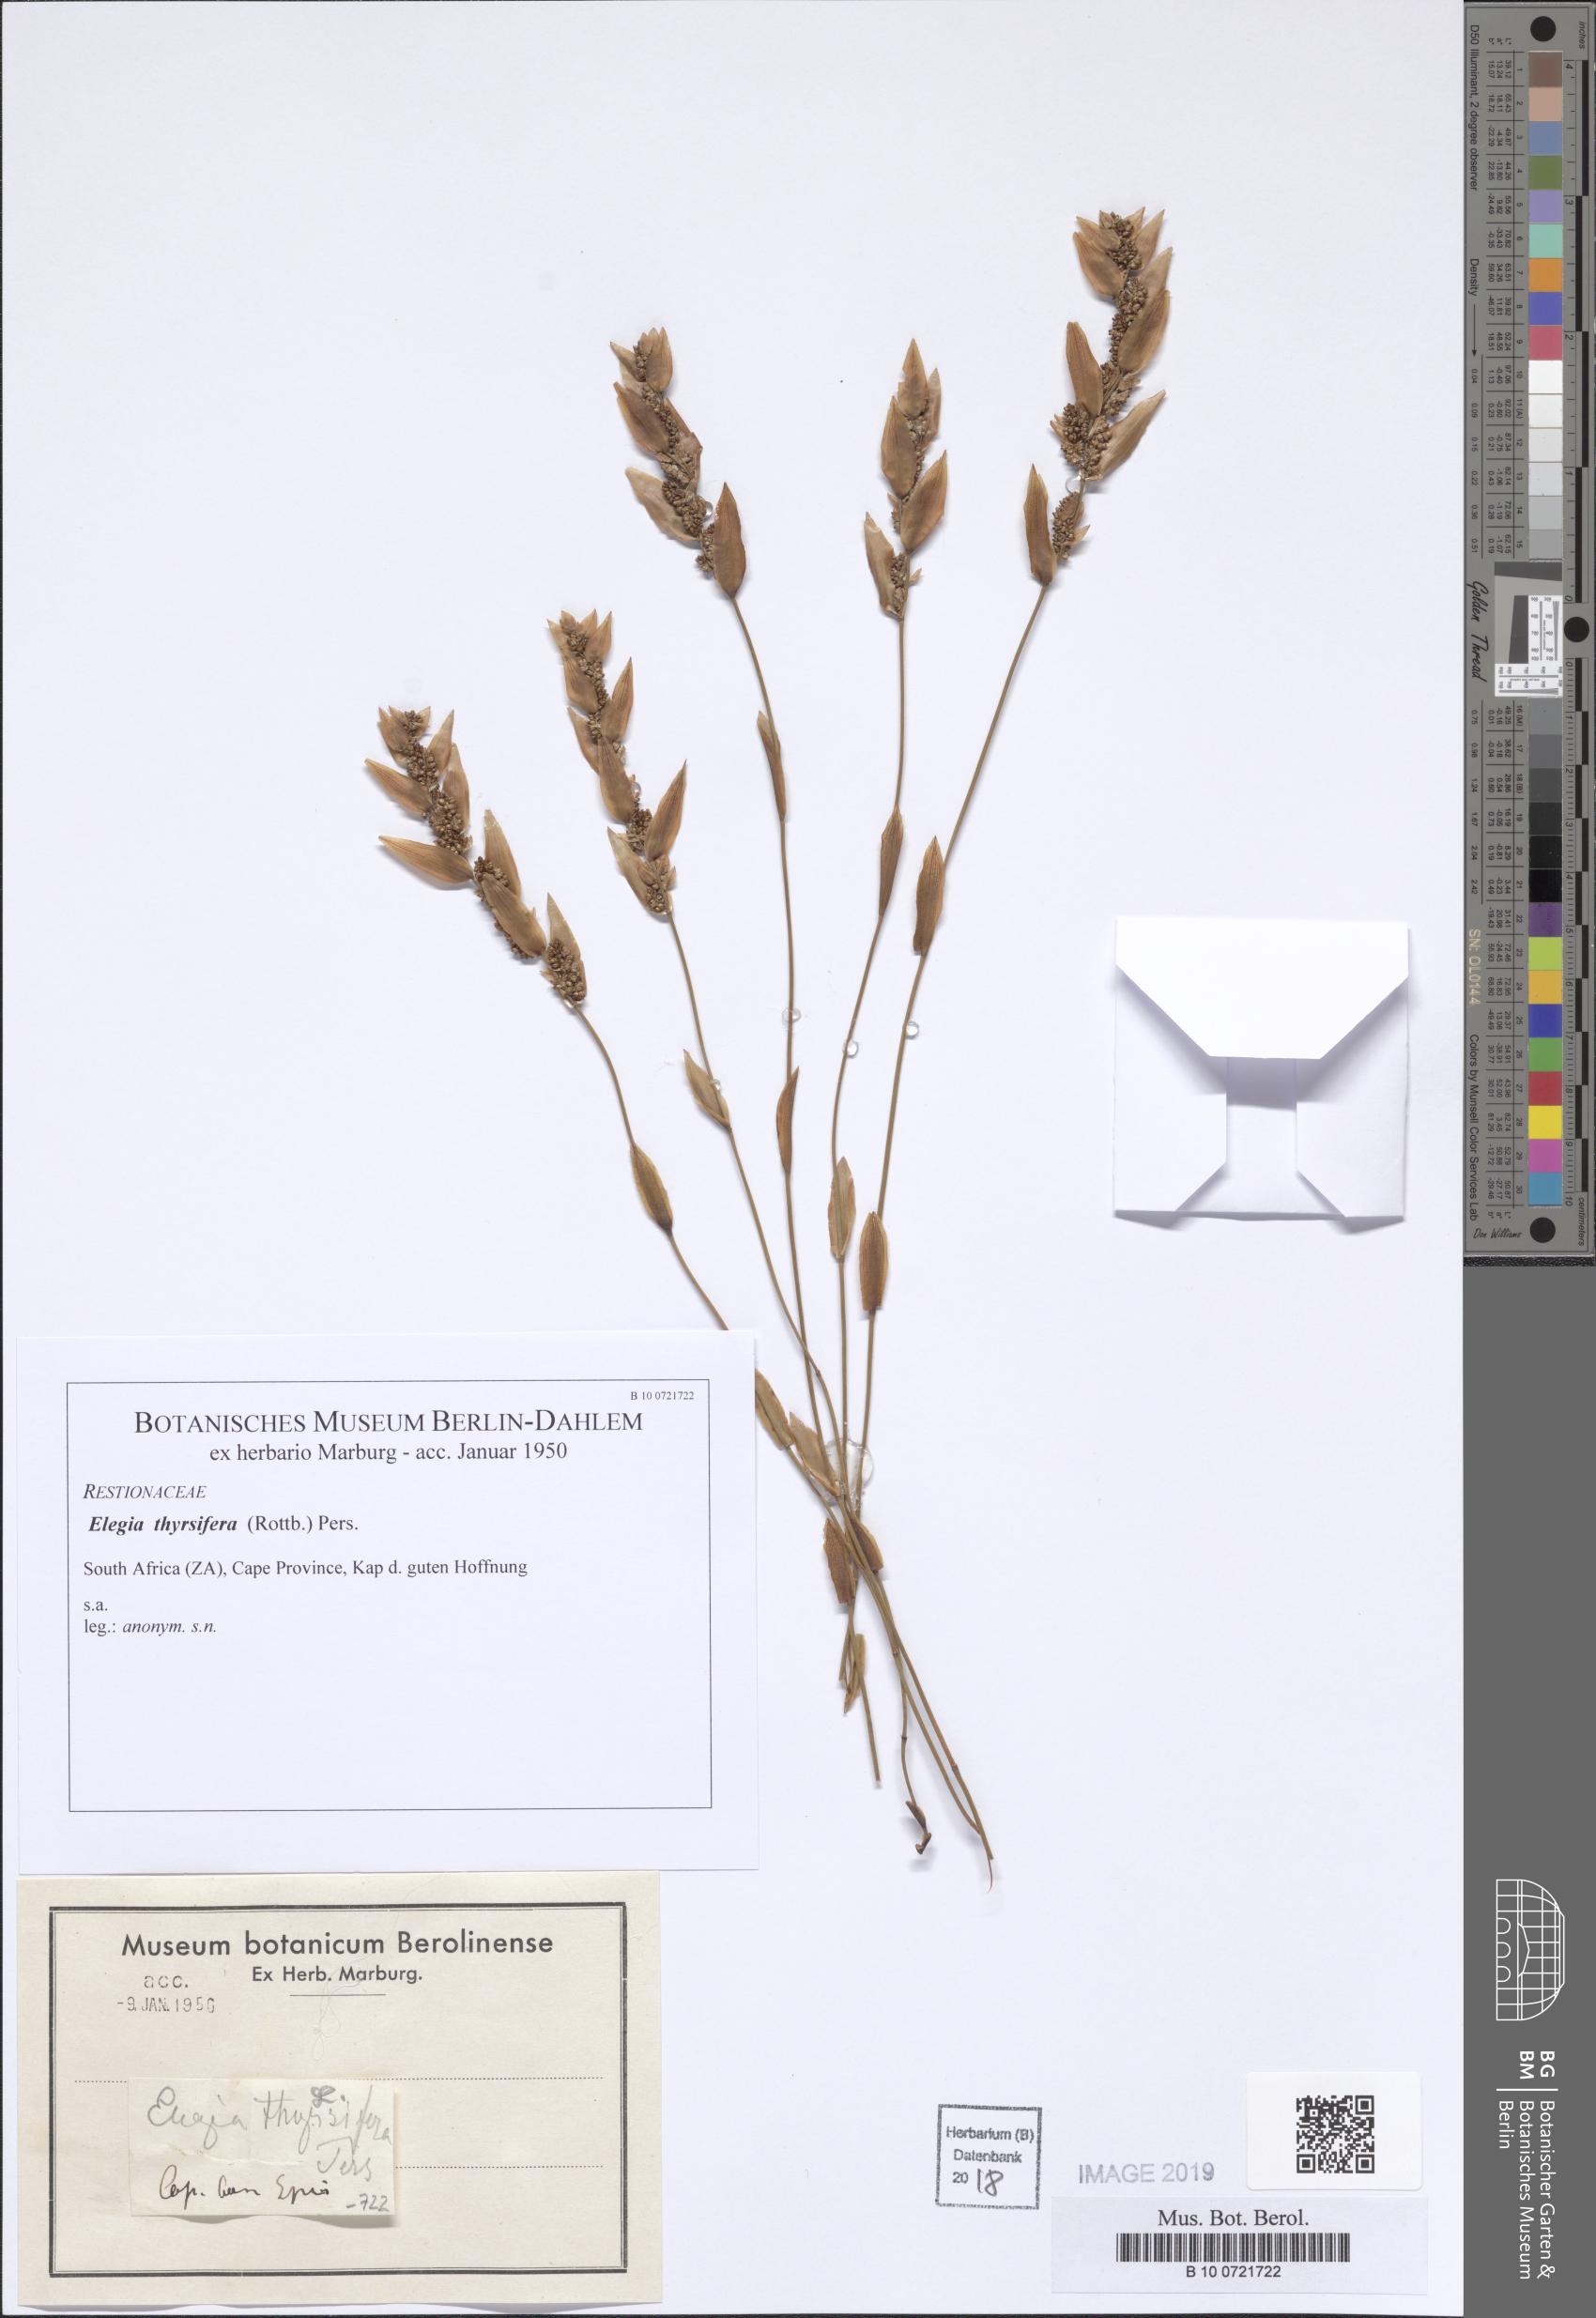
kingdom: Plantae
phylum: Tracheophyta
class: Liliopsida
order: Poales
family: Restionaceae
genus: Elegia
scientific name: Elegia thyrsifera
